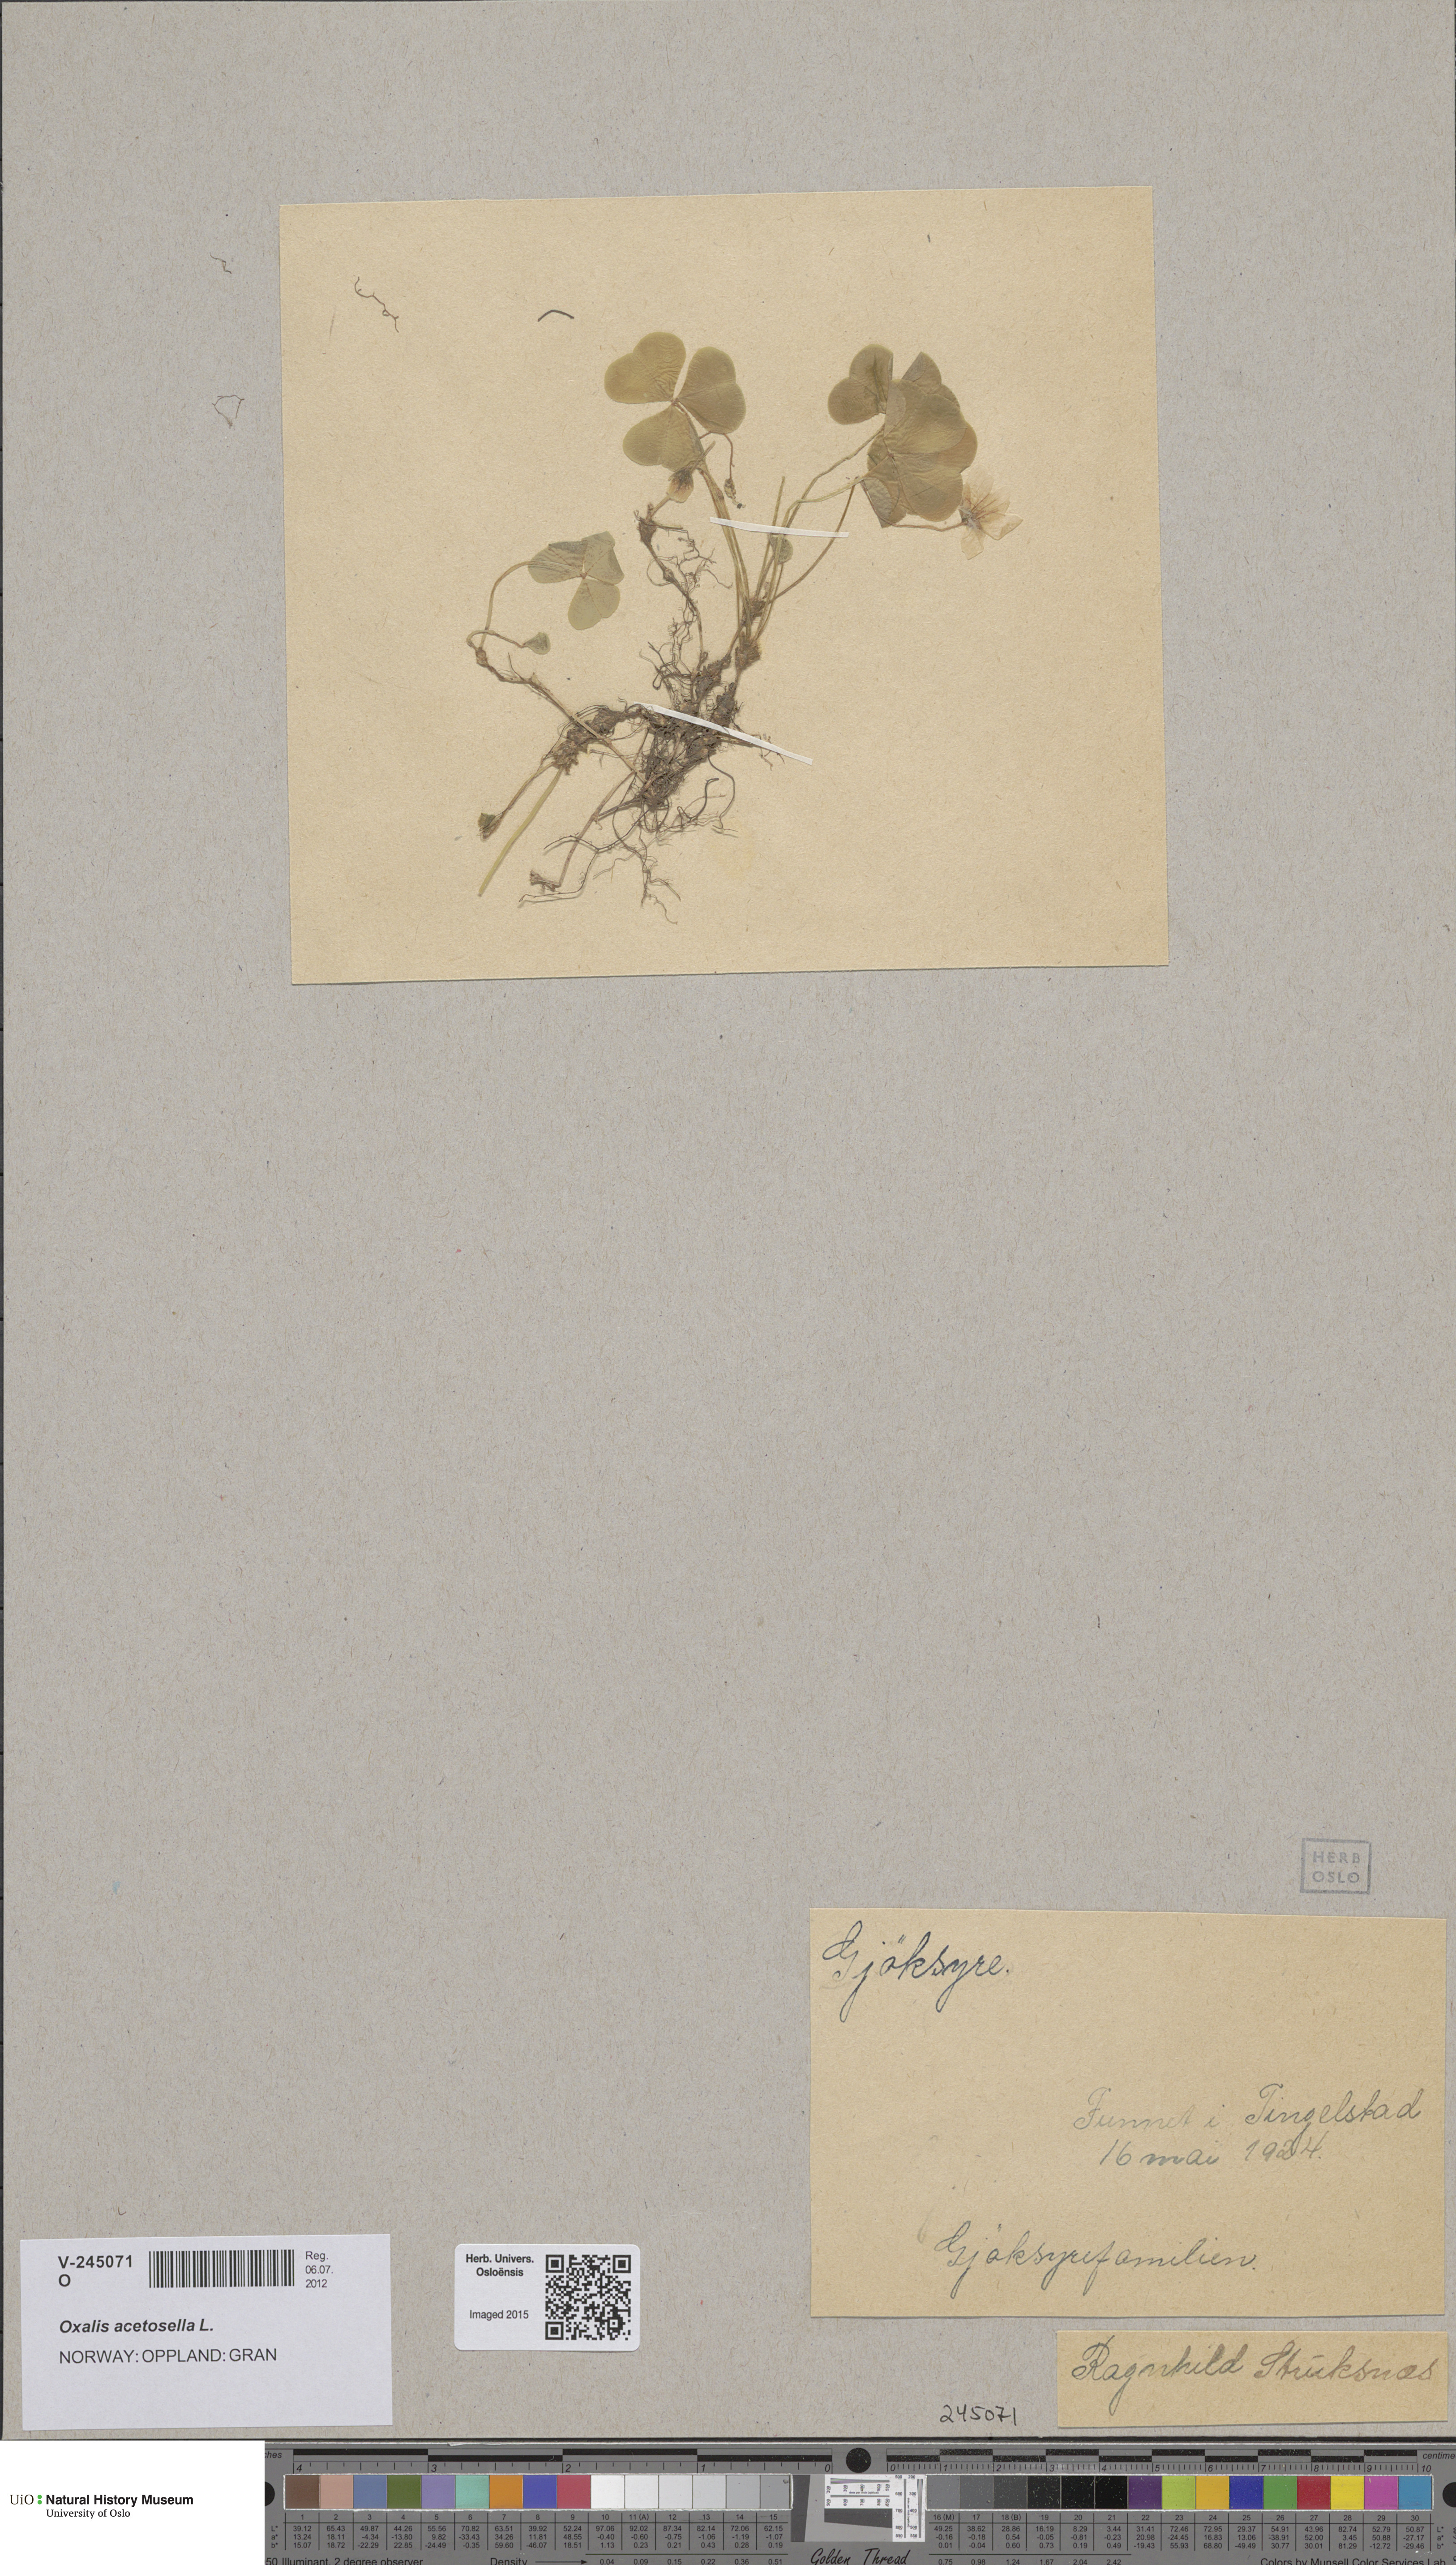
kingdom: Plantae
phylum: Tracheophyta
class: Magnoliopsida
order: Oxalidales
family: Oxalidaceae
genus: Oxalis
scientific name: Oxalis acetosella
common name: Wood-sorrel
